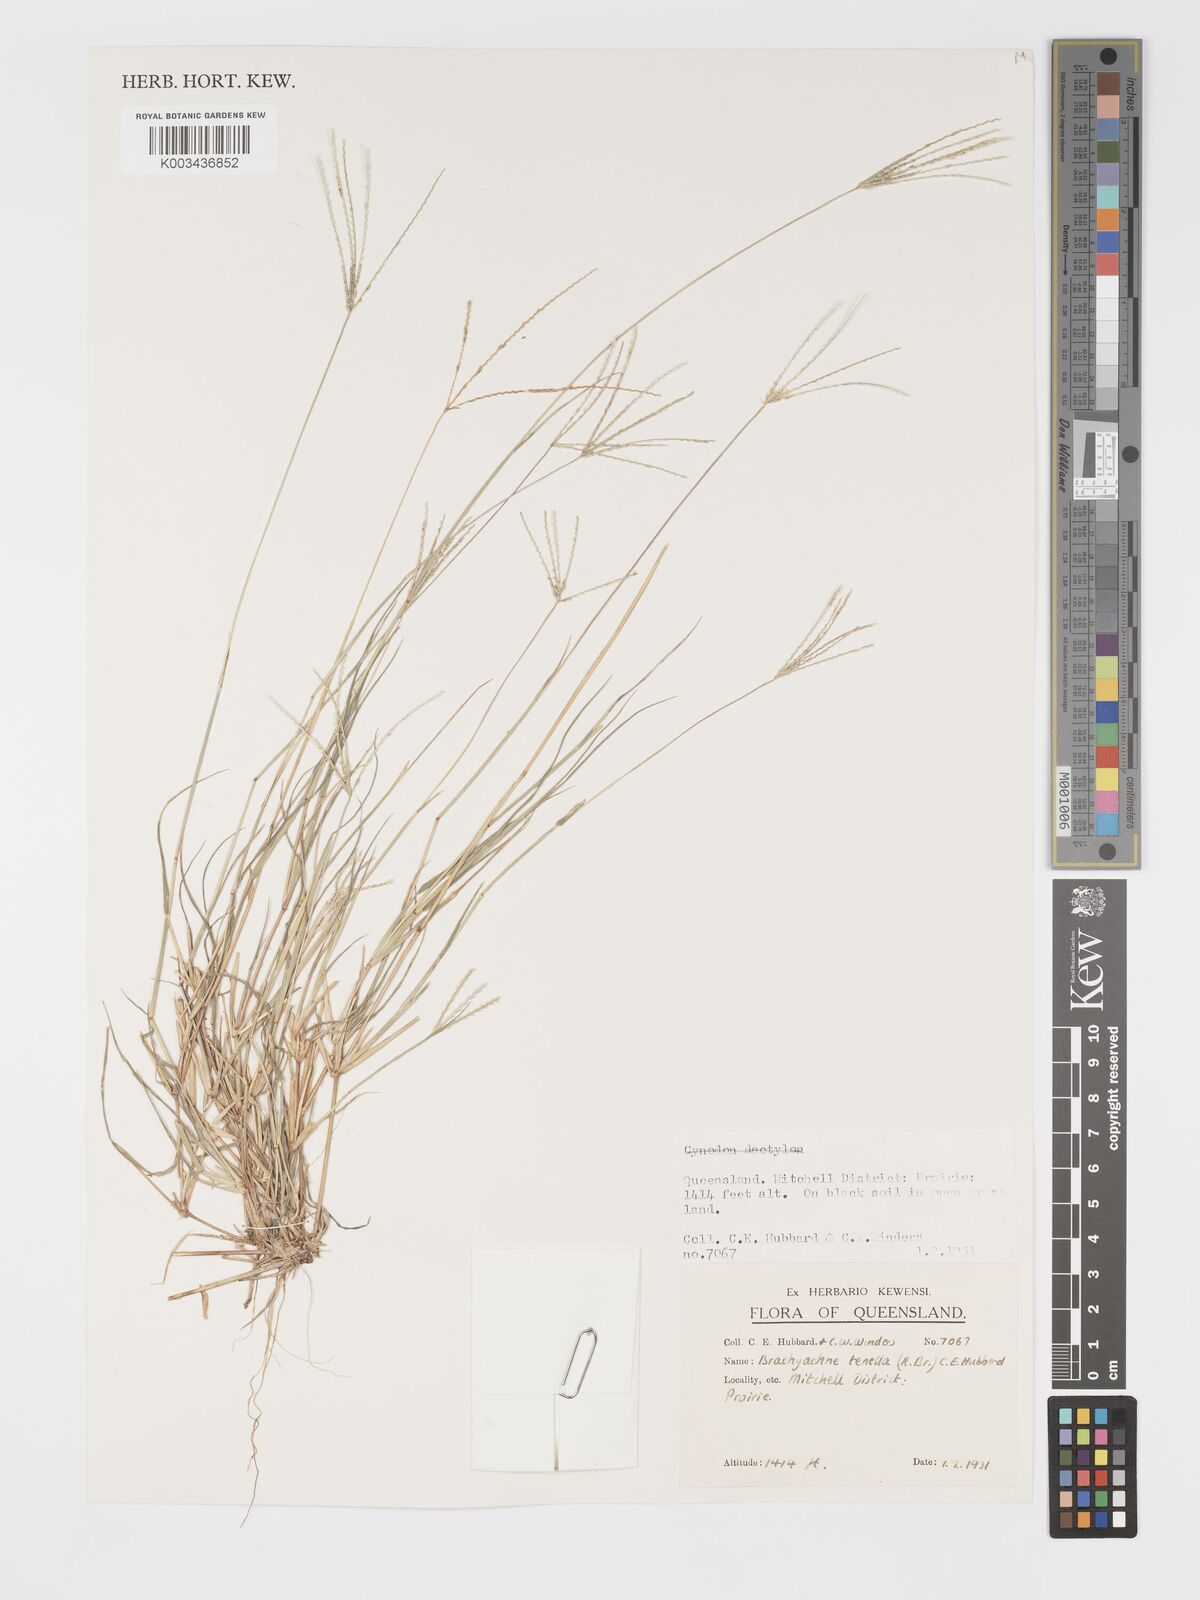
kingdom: Plantae
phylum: Tracheophyta
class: Liliopsida
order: Poales
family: Poaceae
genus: Cynodon
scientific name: Cynodon tenellus
